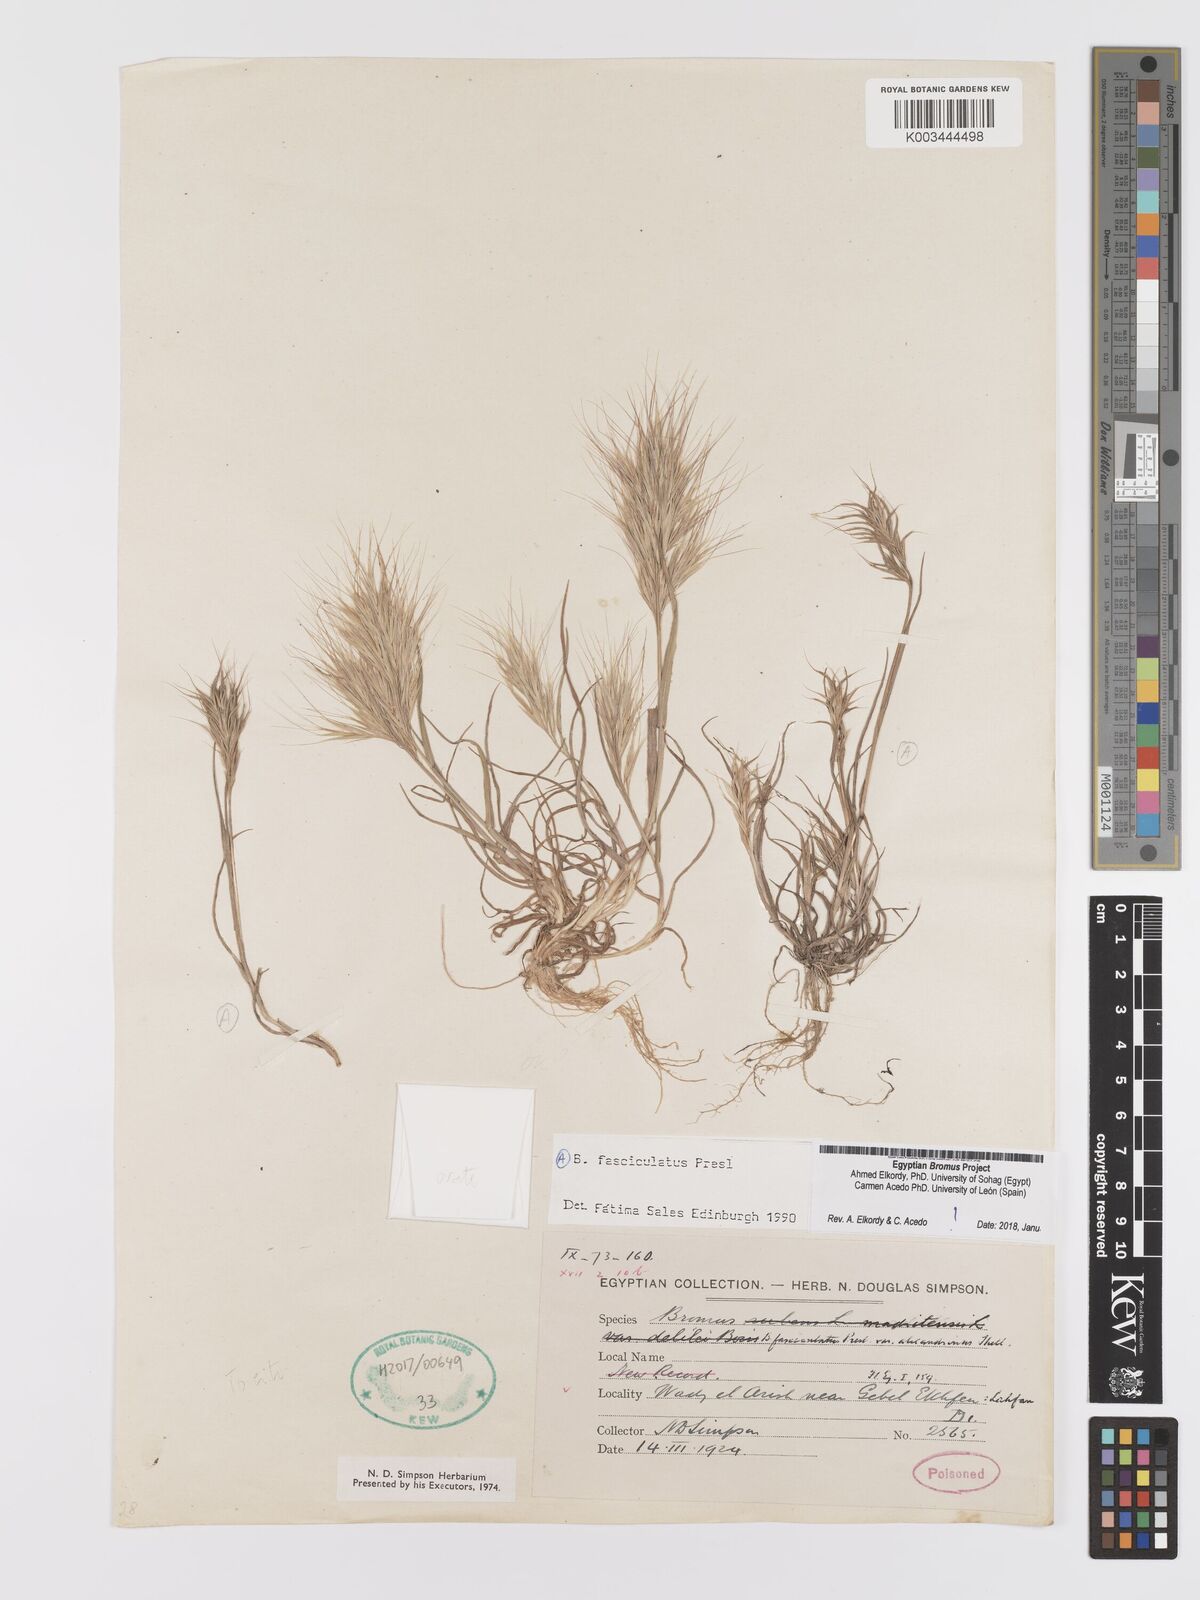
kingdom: Plantae
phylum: Tracheophyta
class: Liliopsida
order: Poales
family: Poaceae
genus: Bromus
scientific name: Bromus fasciculatus
